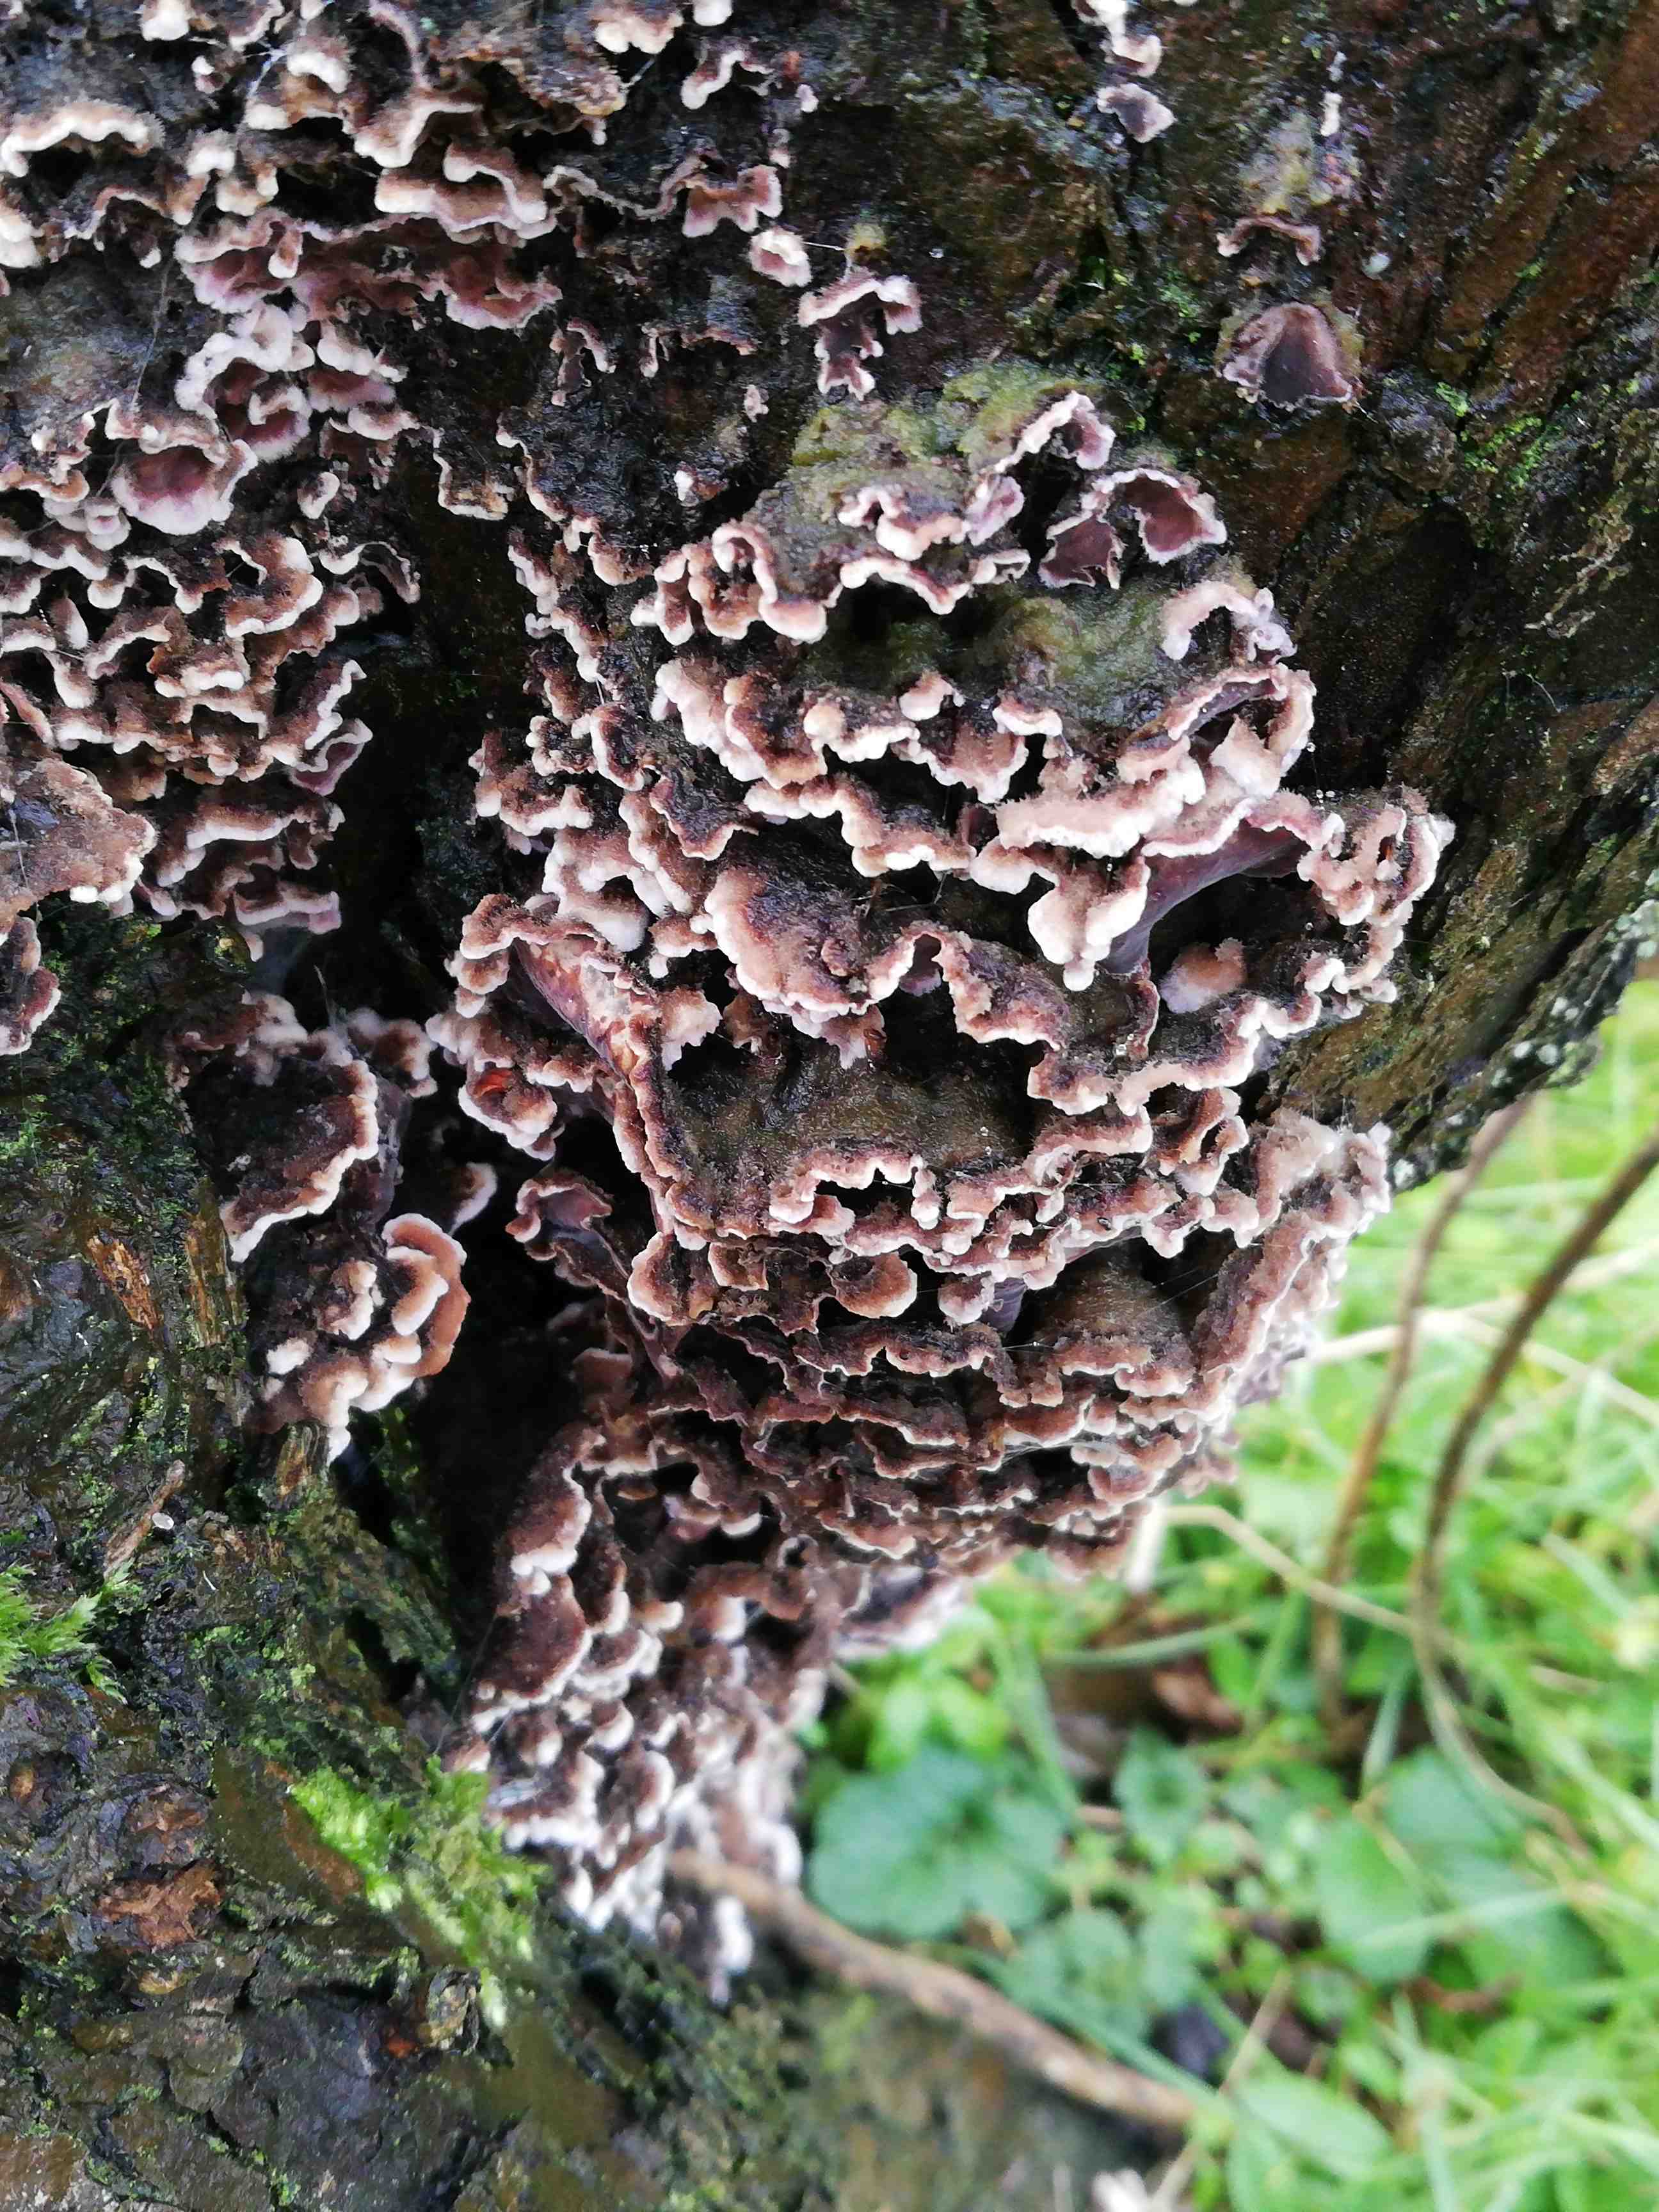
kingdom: Fungi
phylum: Basidiomycota
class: Agaricomycetes
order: Agaricales
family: Cyphellaceae
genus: Chondrostereum
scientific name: Chondrostereum purpureum
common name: purpurlædersvamp
